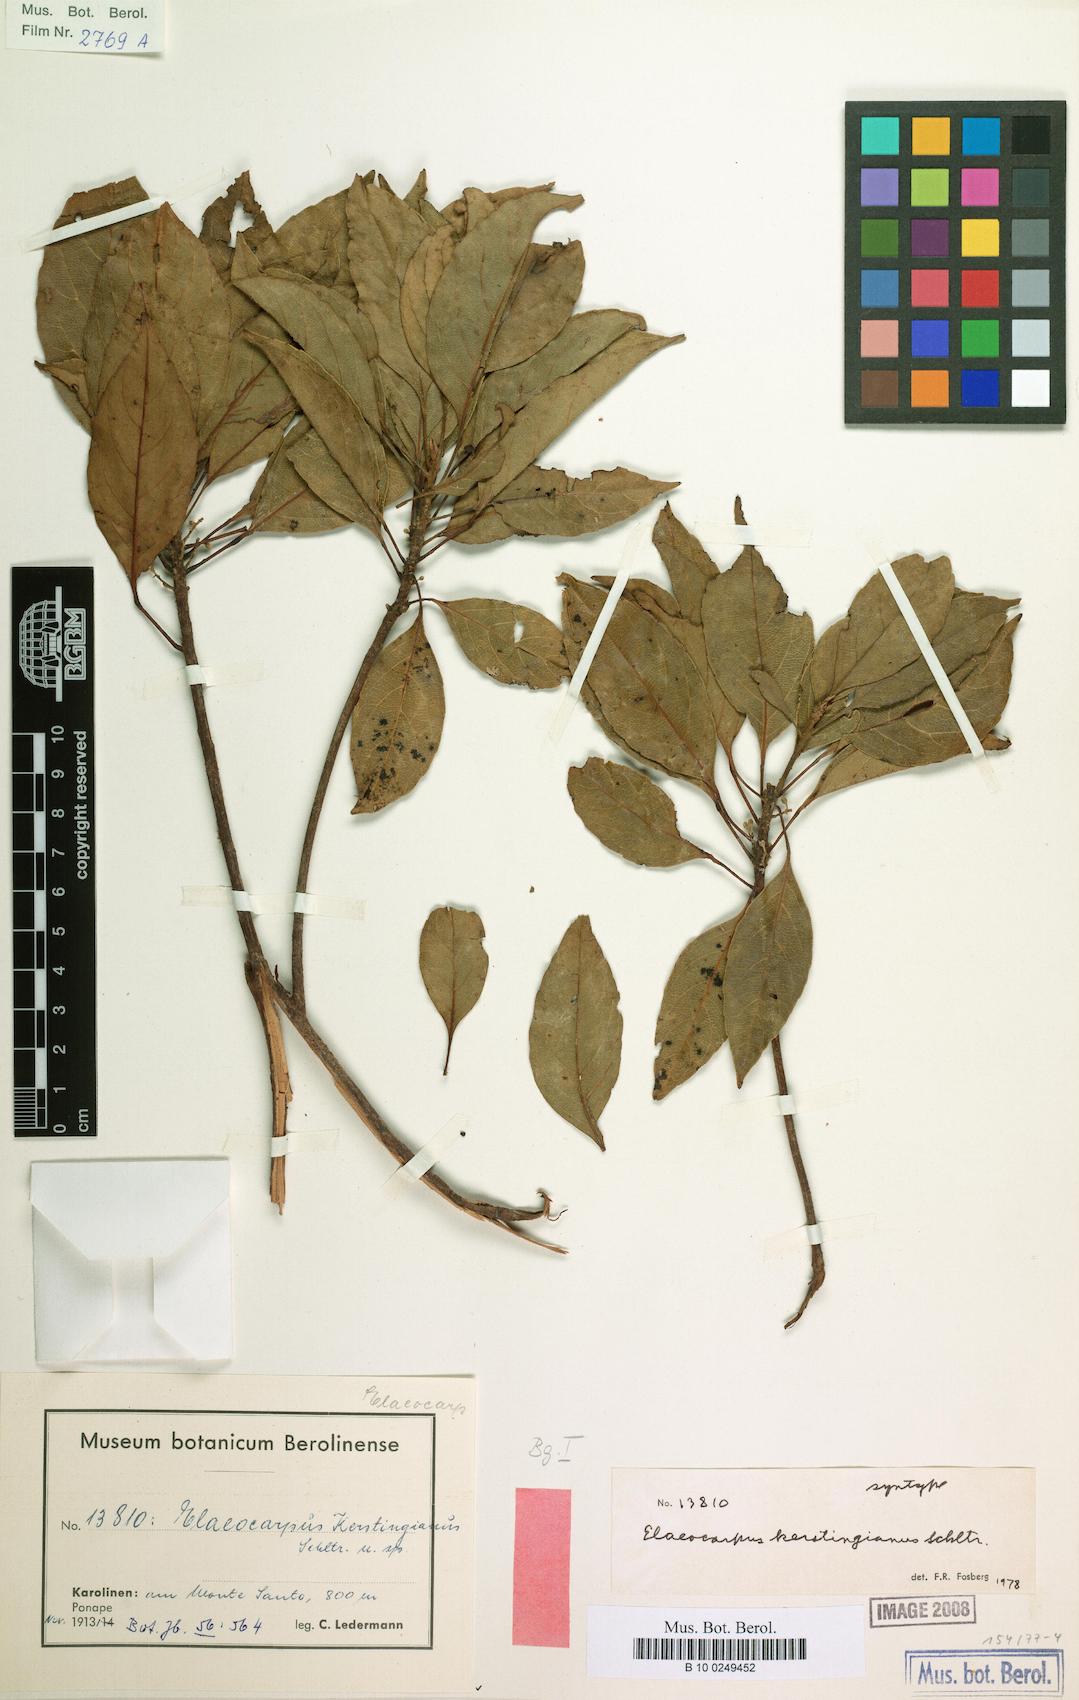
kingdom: Plantae
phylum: Tracheophyta
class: Magnoliopsida
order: Oxalidales
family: Elaeocarpaceae
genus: Elaeocarpus
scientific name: Elaeocarpus kerstingianus
